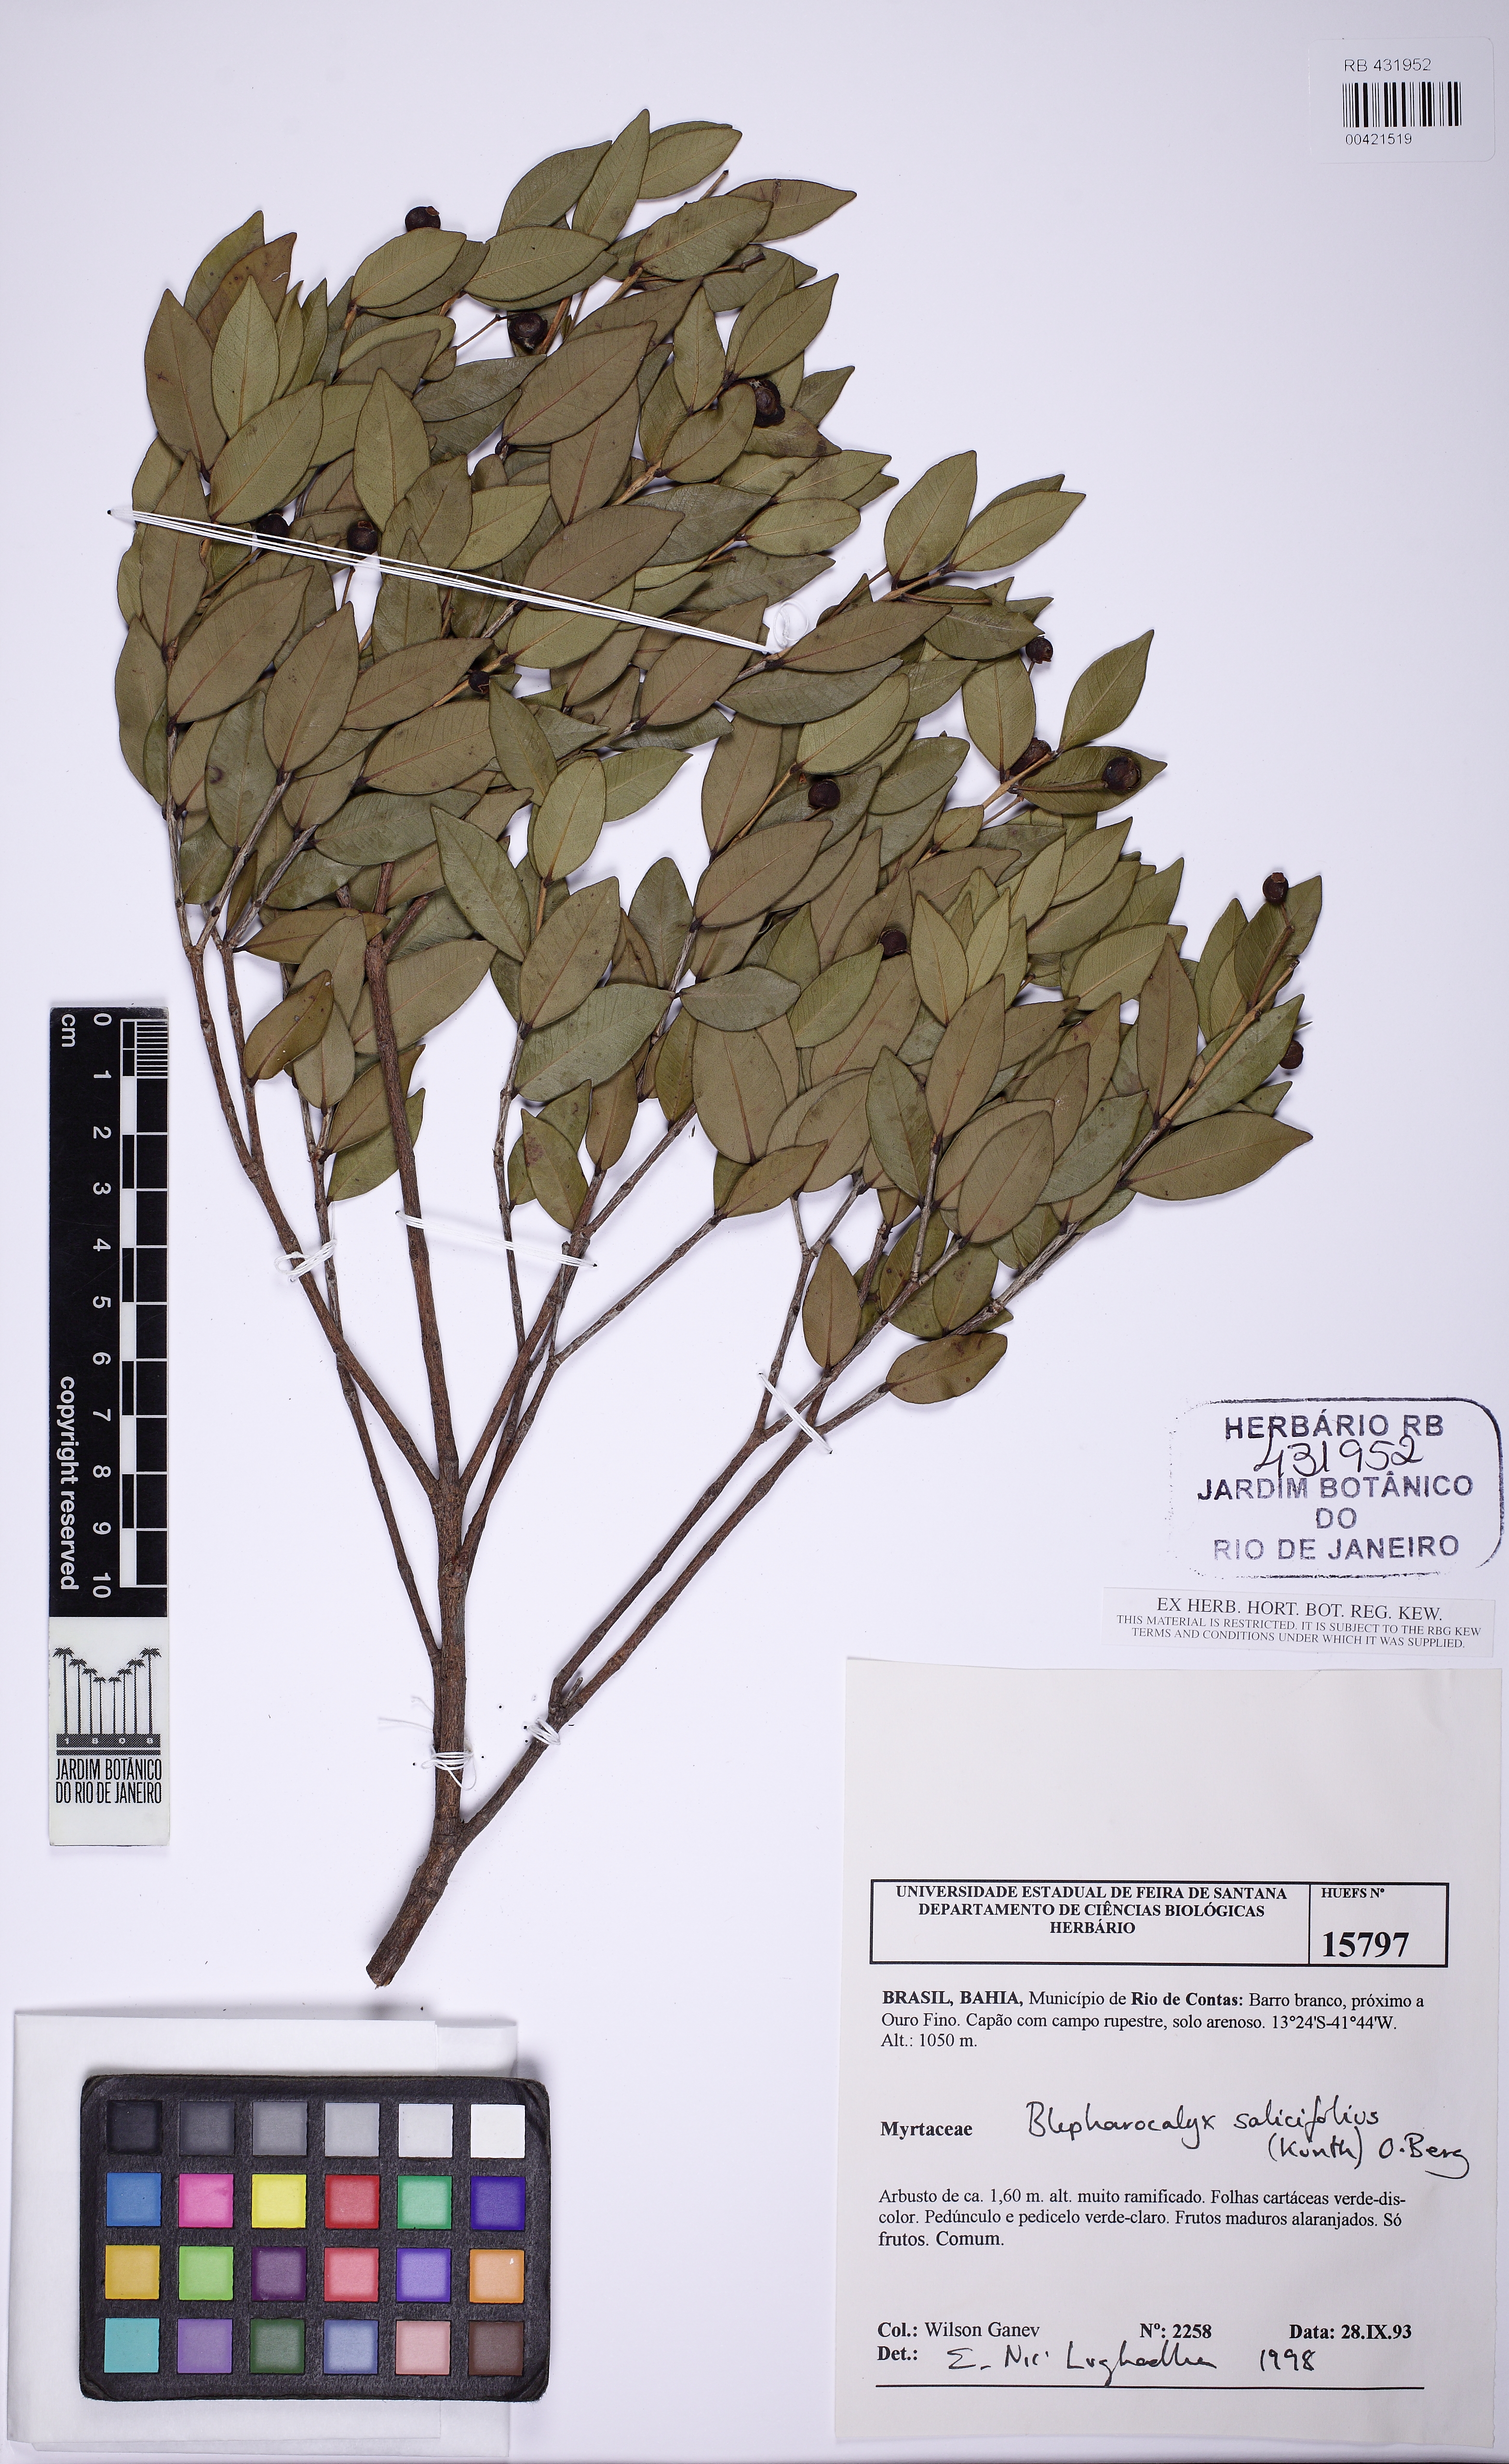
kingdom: Plantae
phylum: Tracheophyta
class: Magnoliopsida
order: Myrtales
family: Myrtaceae
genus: Blepharocalyx
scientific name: Blepharocalyx salicifolius
